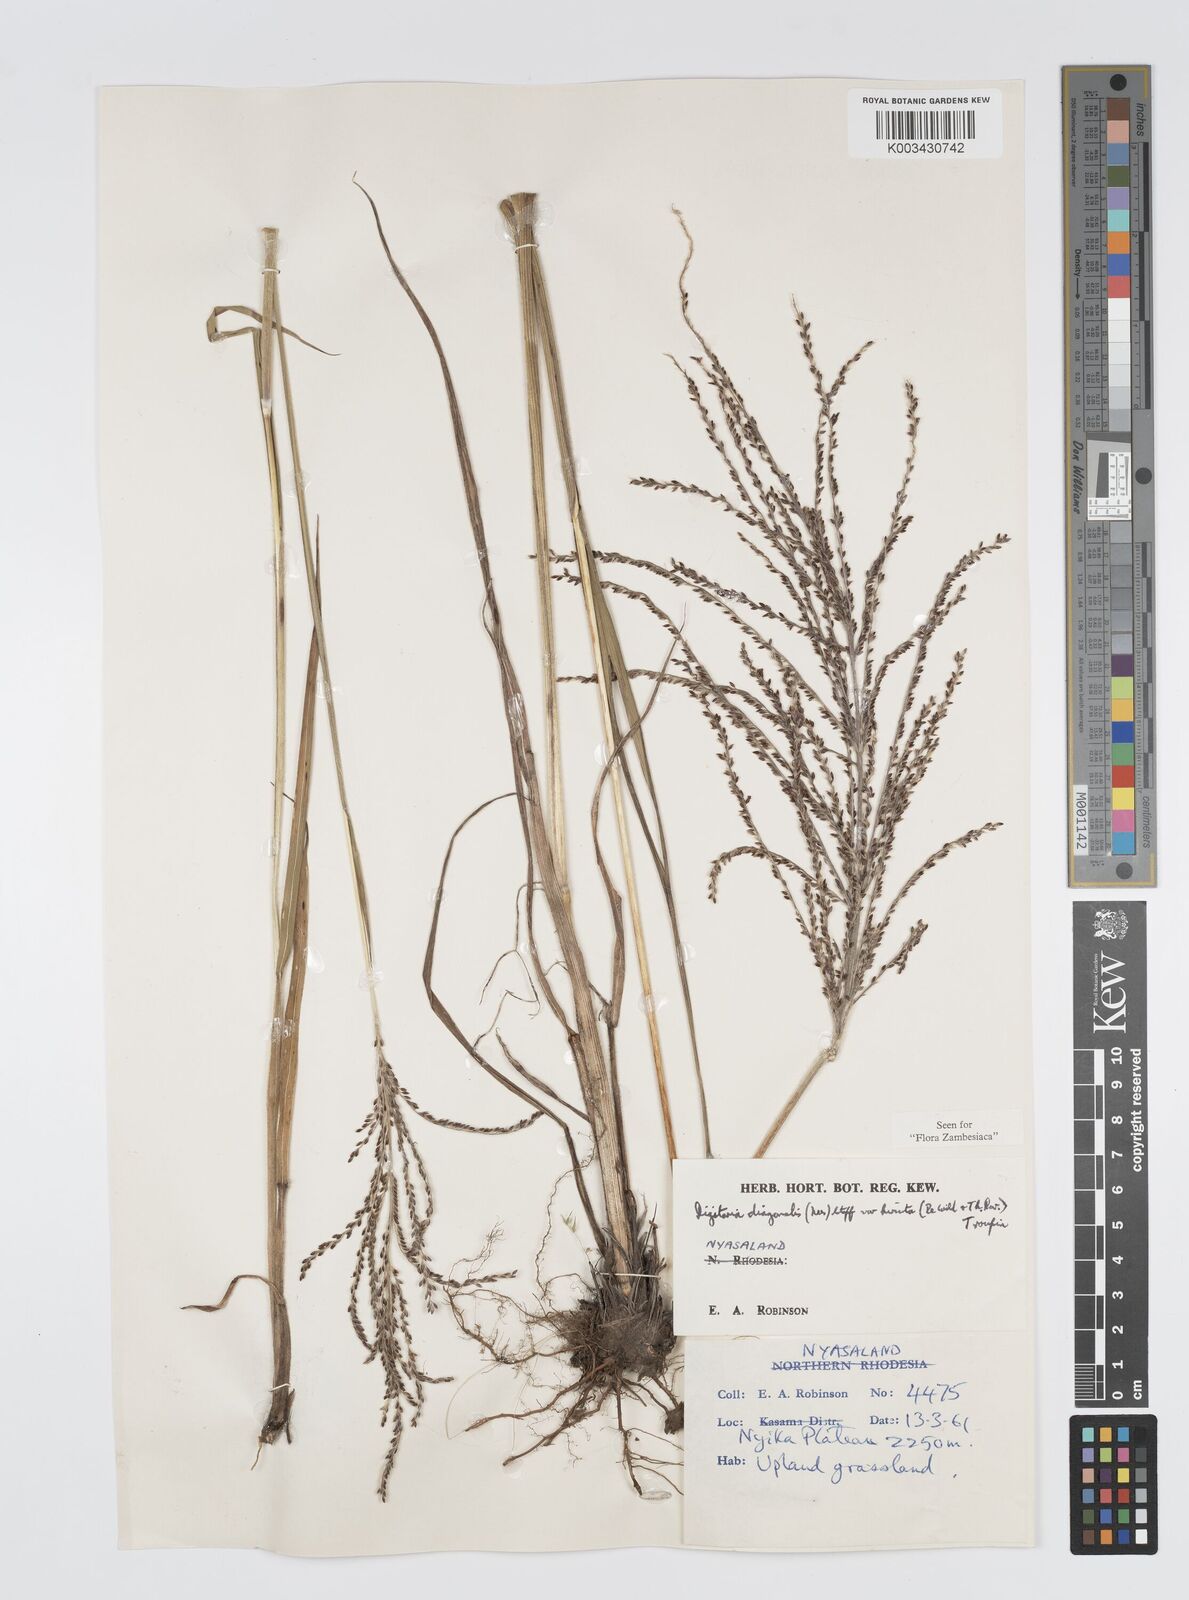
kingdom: Plantae
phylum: Tracheophyta
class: Liliopsida
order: Poales
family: Poaceae
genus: Digitaria
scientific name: Digitaria diagonalis
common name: Brown-seed finger grass
